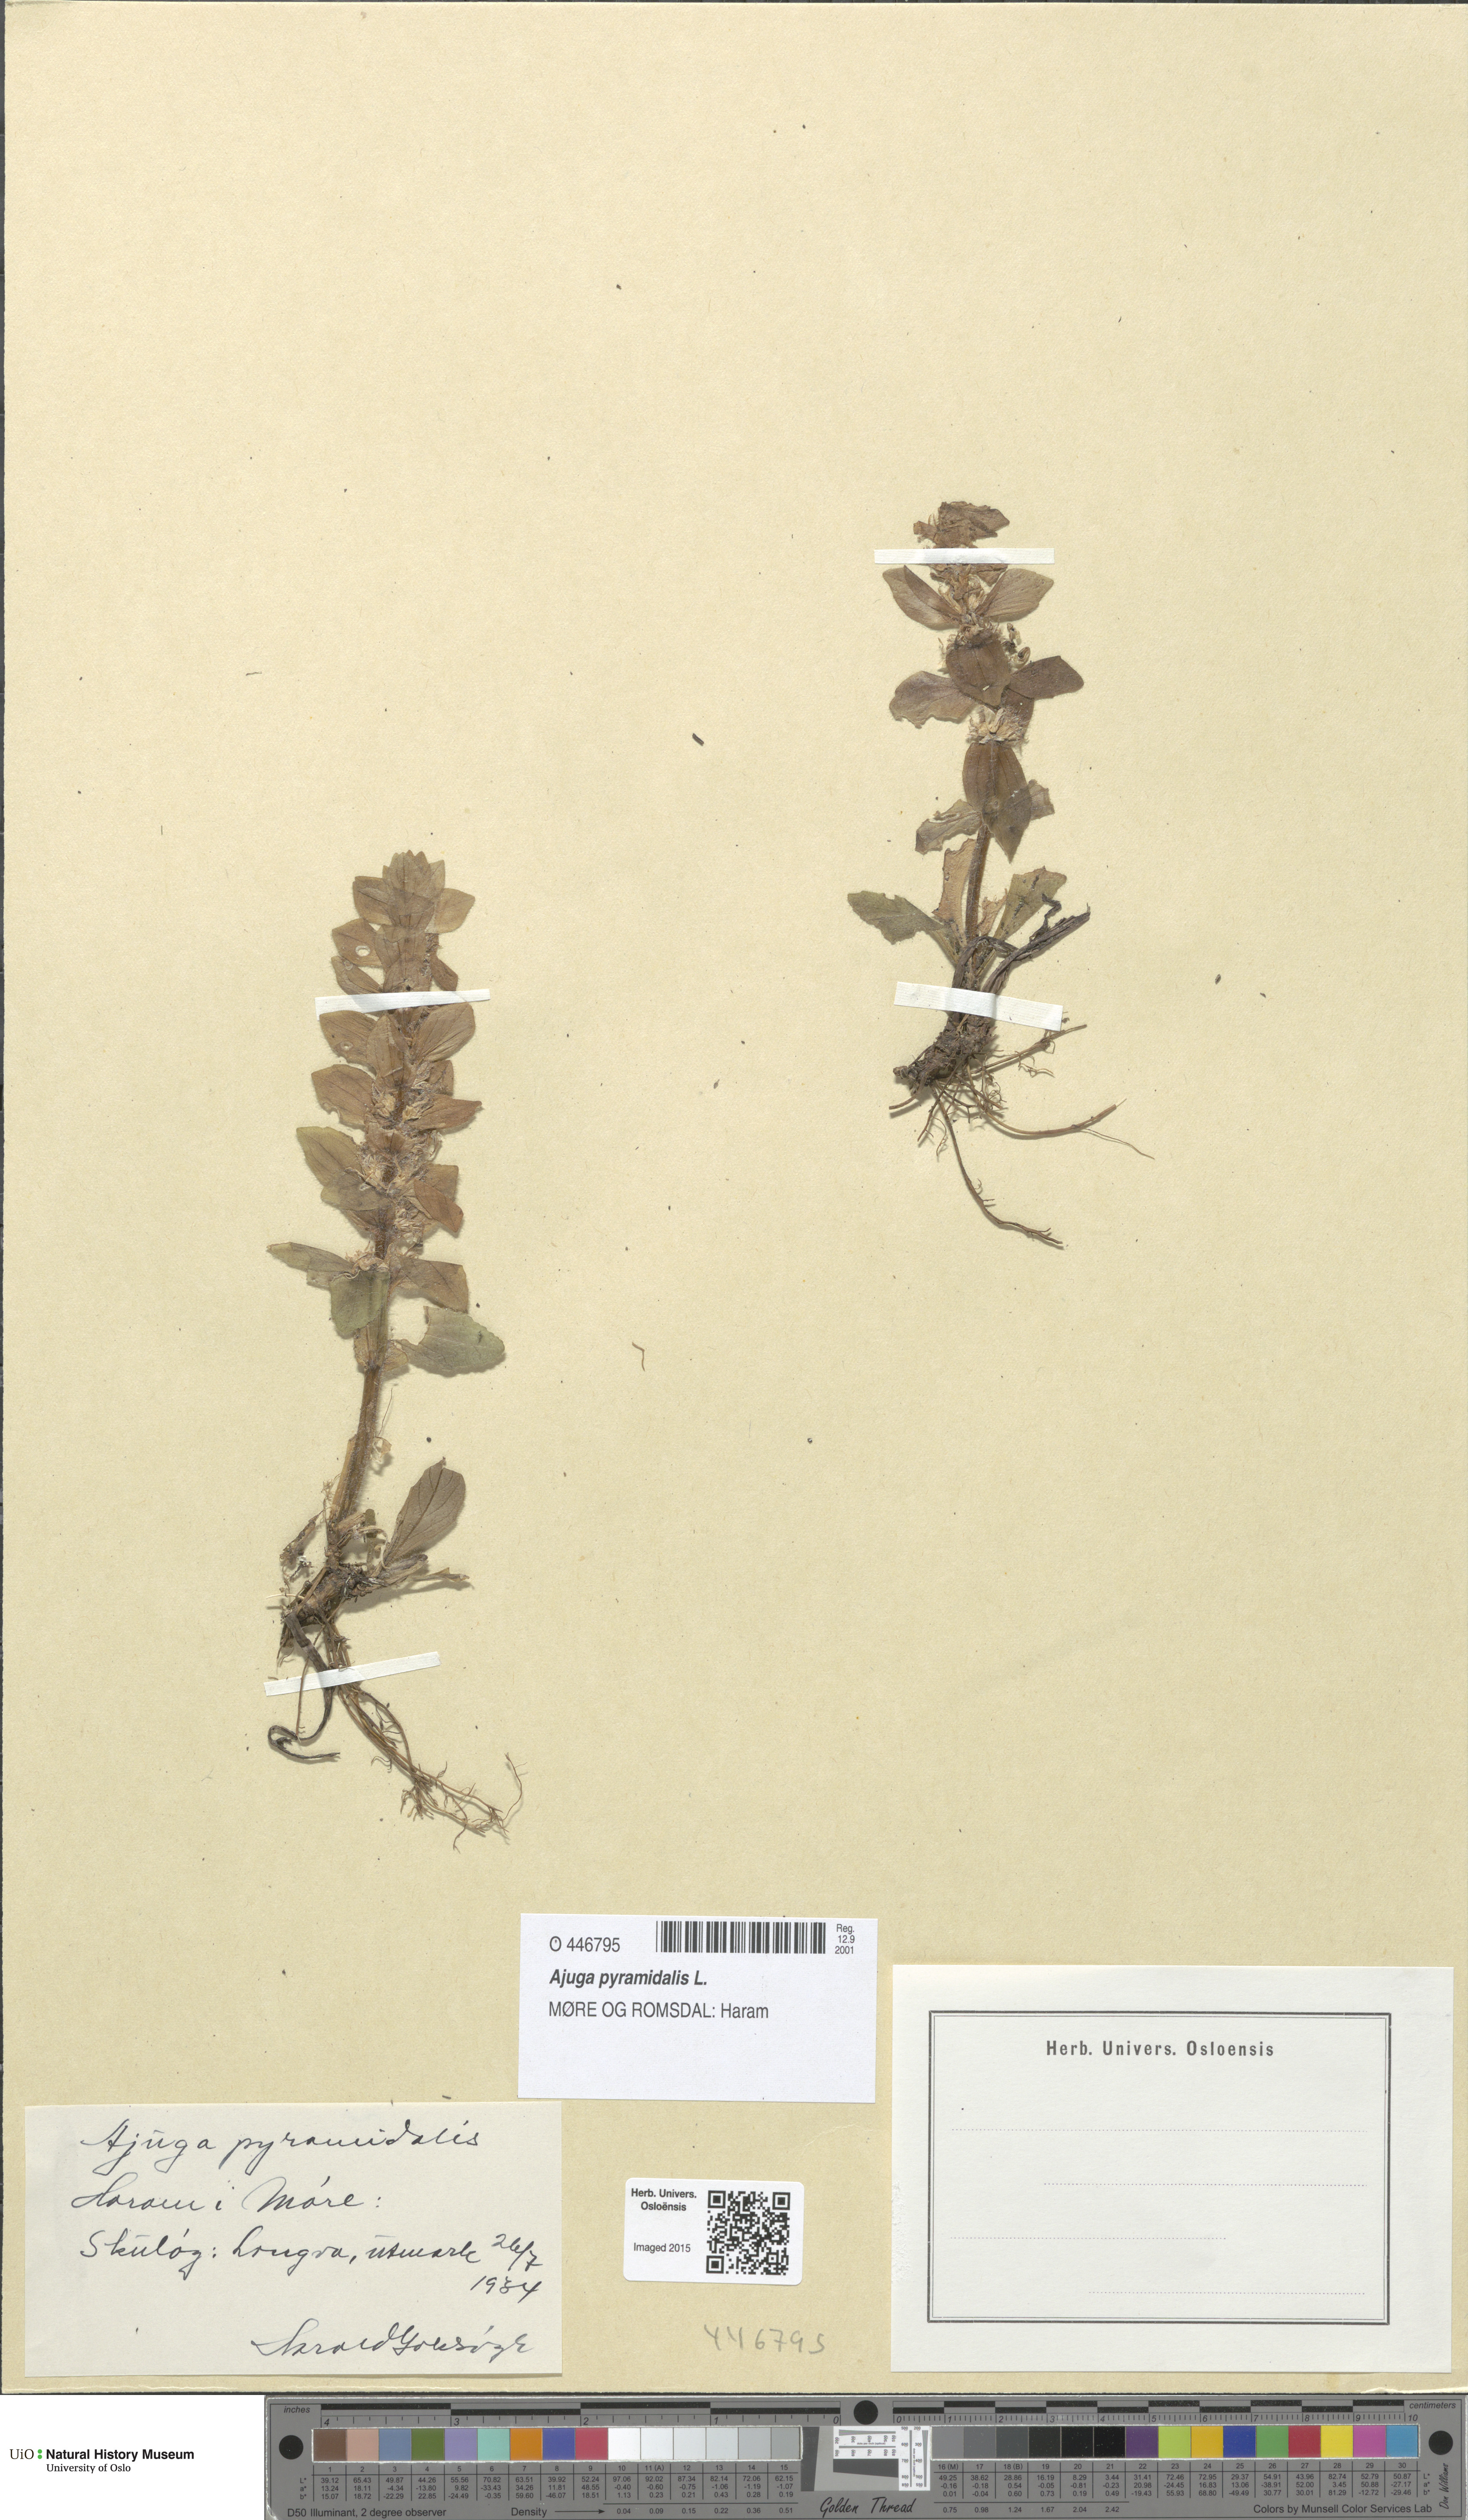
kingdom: Plantae
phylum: Tracheophyta
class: Magnoliopsida
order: Lamiales
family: Lamiaceae
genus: Ajuga
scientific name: Ajuga pyramidalis
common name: Pyramid bugle
